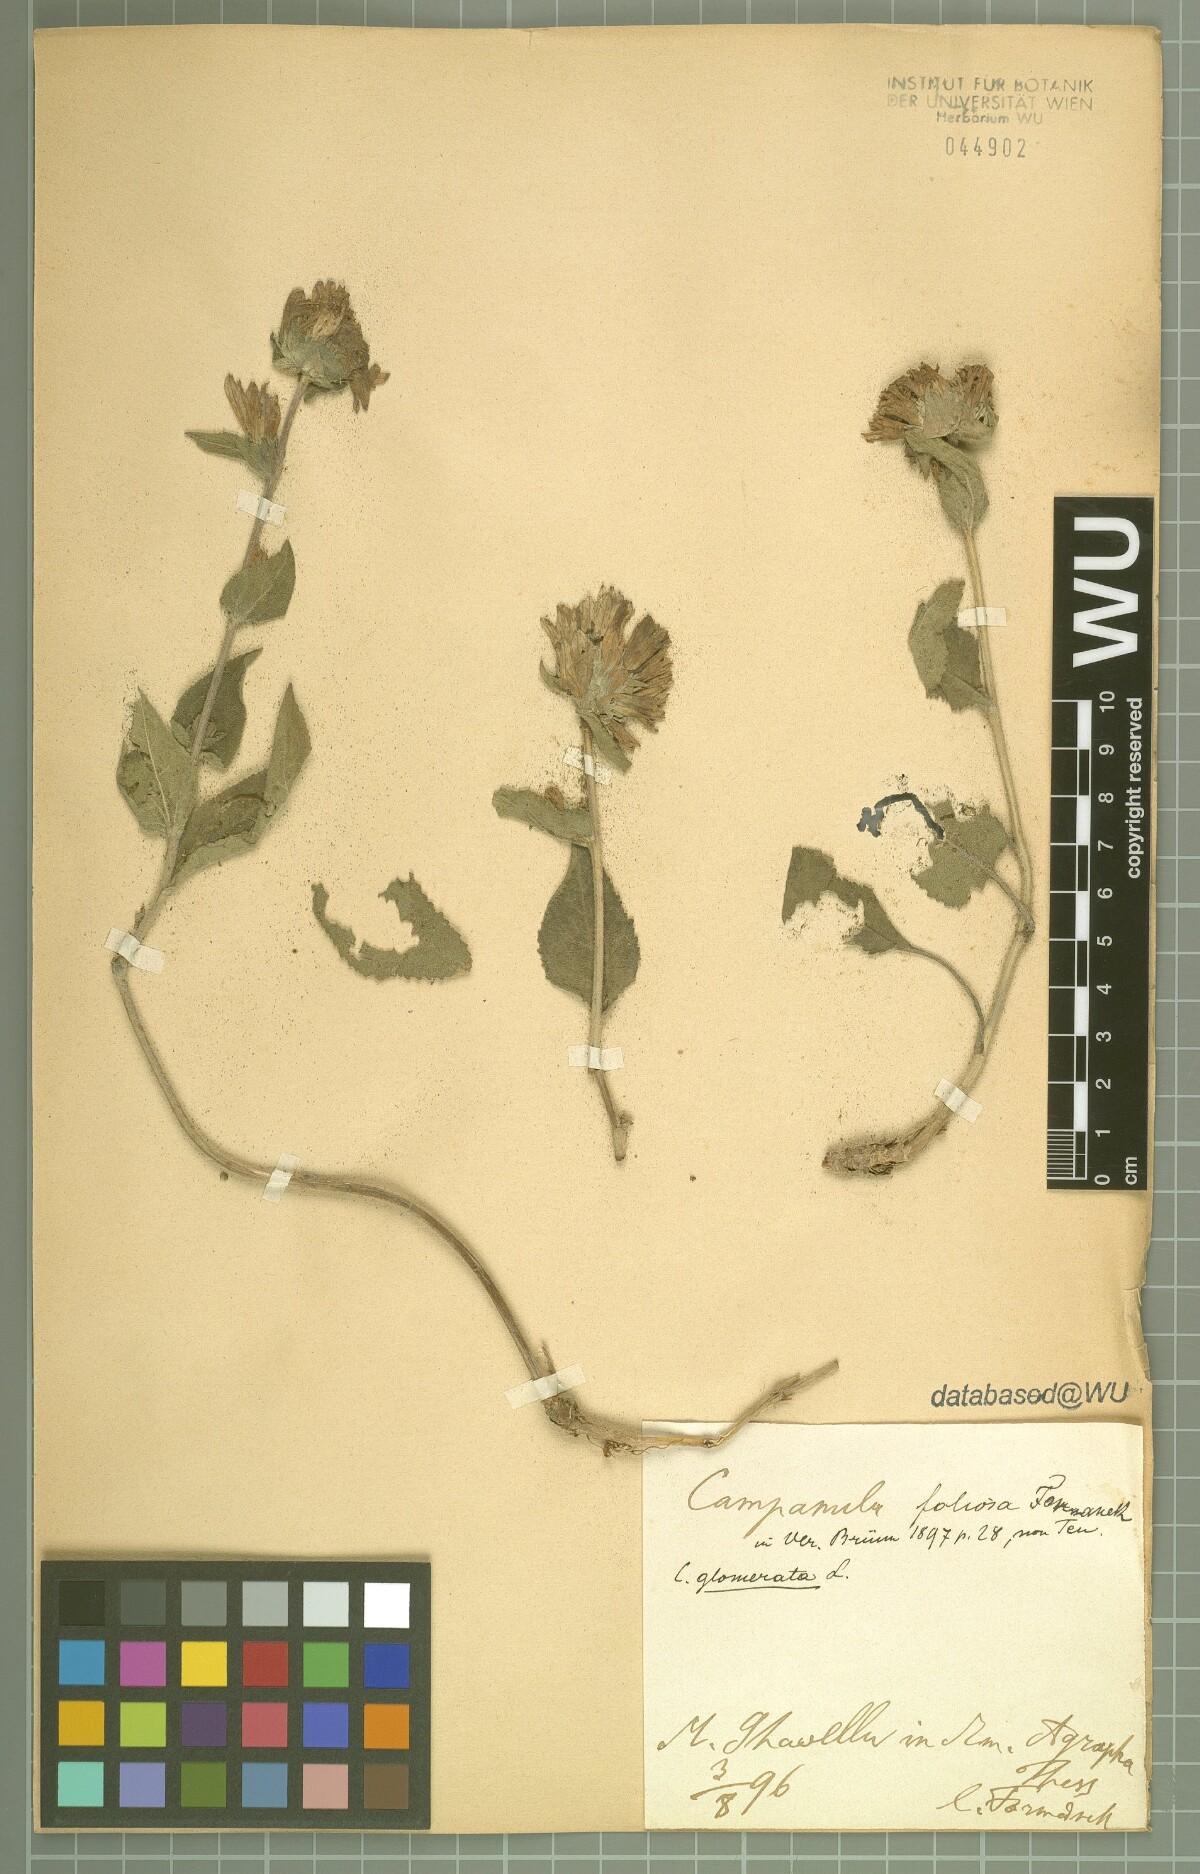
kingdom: Plantae
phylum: Tracheophyta
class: Magnoliopsida
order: Asterales
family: Campanulaceae
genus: Campanula
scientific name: Campanula foliosa
